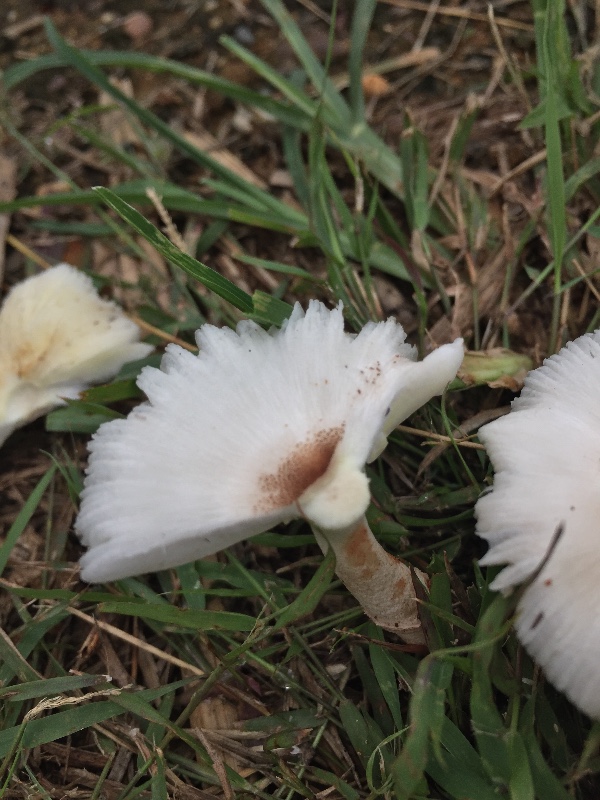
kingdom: Fungi
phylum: Basidiomycota
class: Agaricomycetes
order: Agaricales
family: Agaricaceae
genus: Leucocoprinus
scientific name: Leucocoprinus
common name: silkehat
